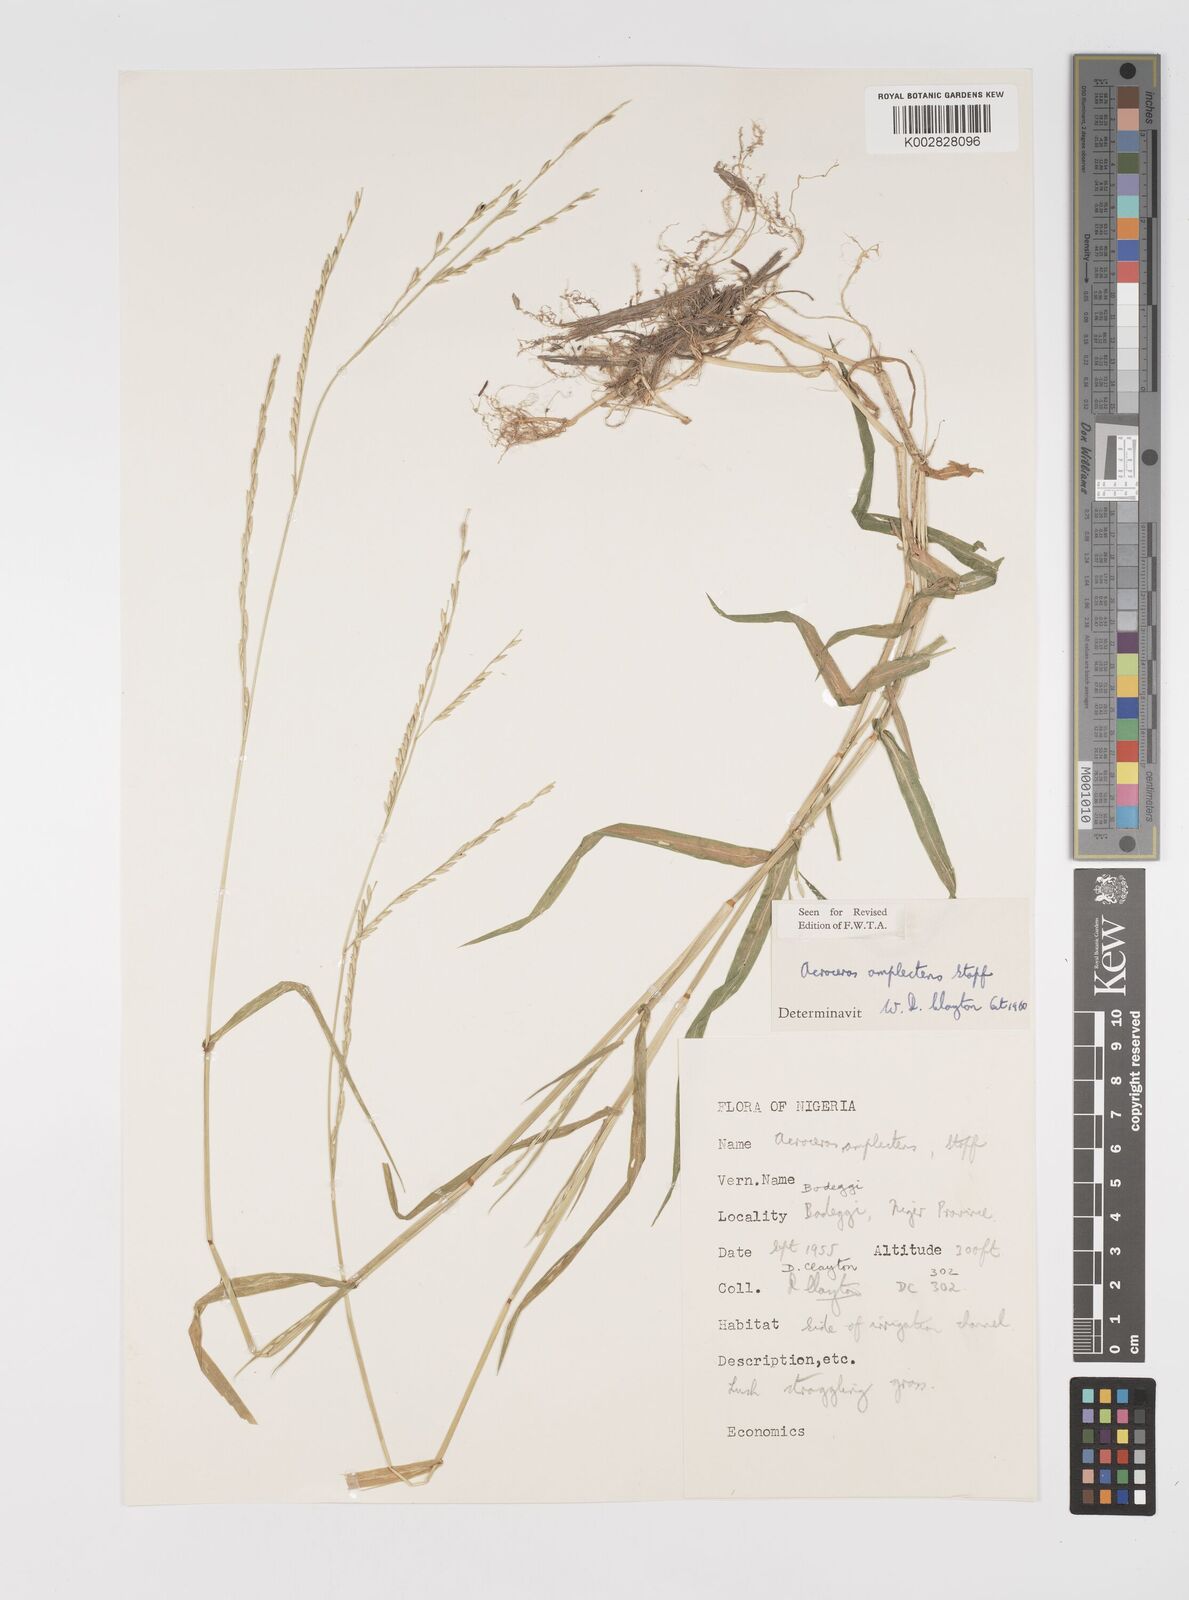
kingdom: Plantae
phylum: Tracheophyta
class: Liliopsida
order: Poales
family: Poaceae
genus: Acroceras
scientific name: Acroceras amplectens
